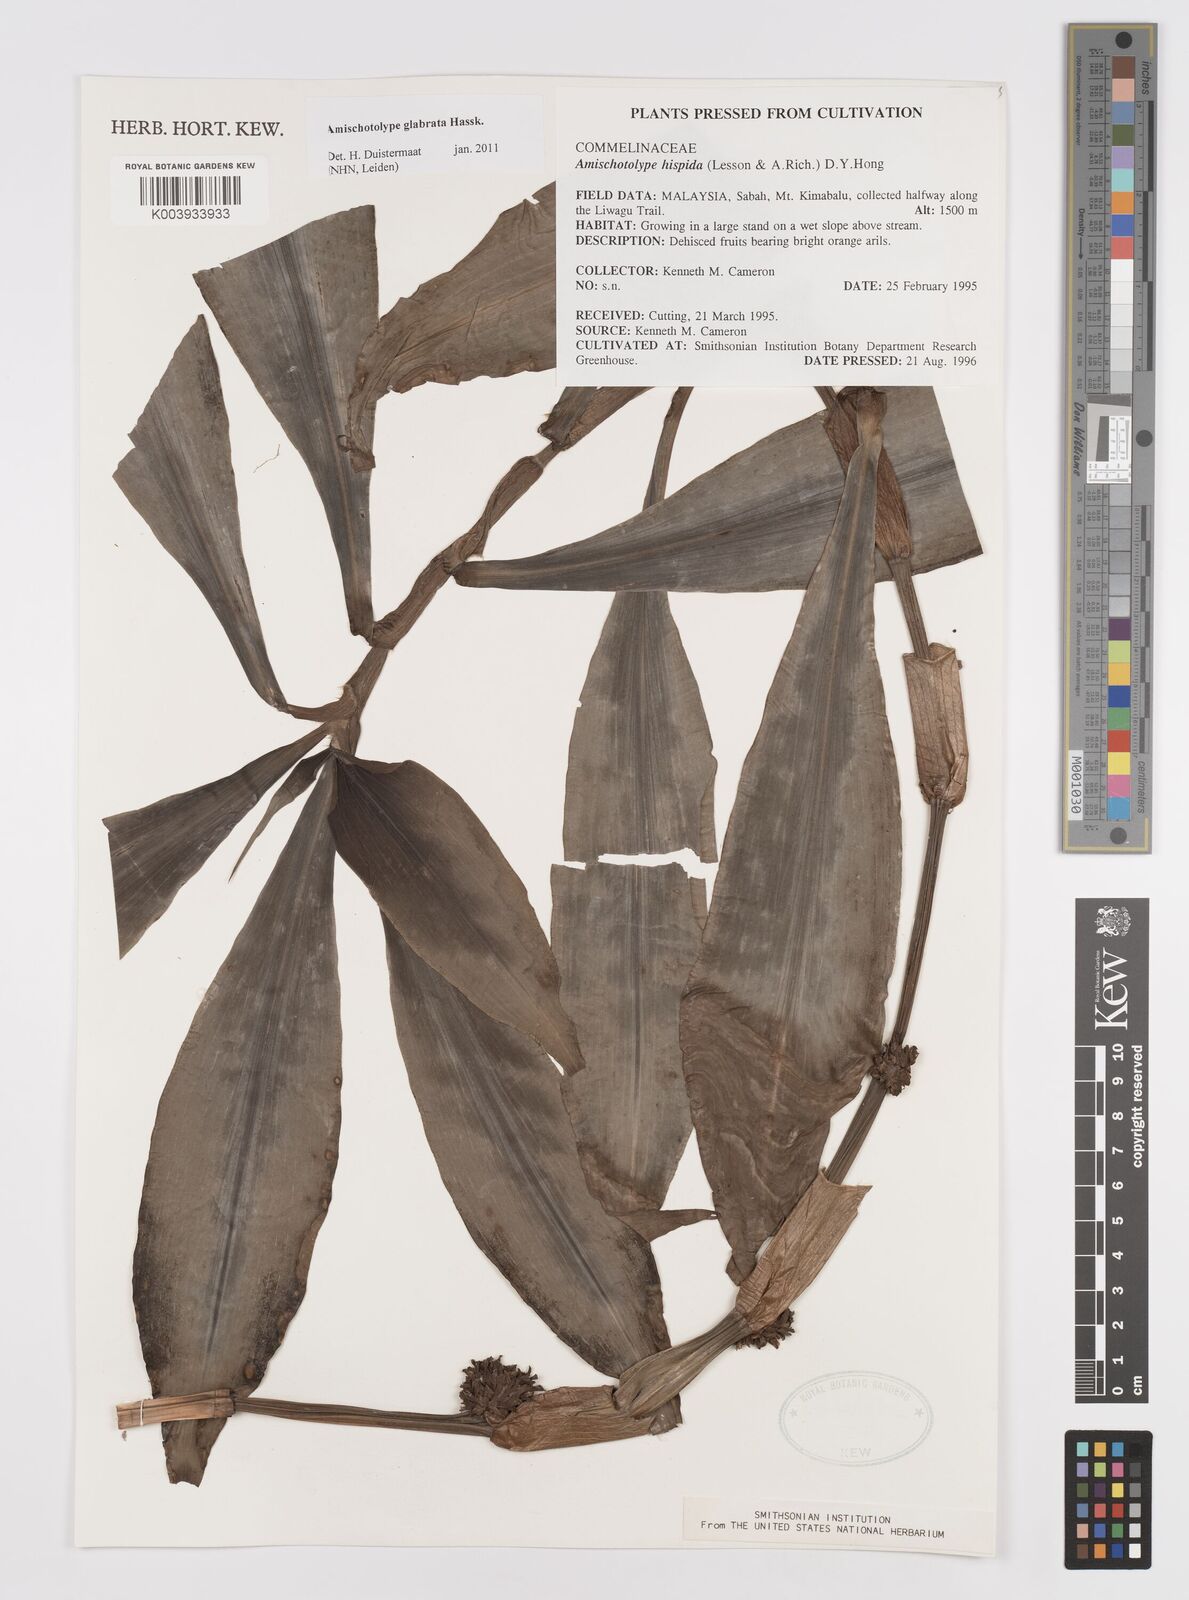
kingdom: Plantae
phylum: Tracheophyta
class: Liliopsida
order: Commelinales
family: Commelinaceae
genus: Amischotolype
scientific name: Amischotolype glabrata
